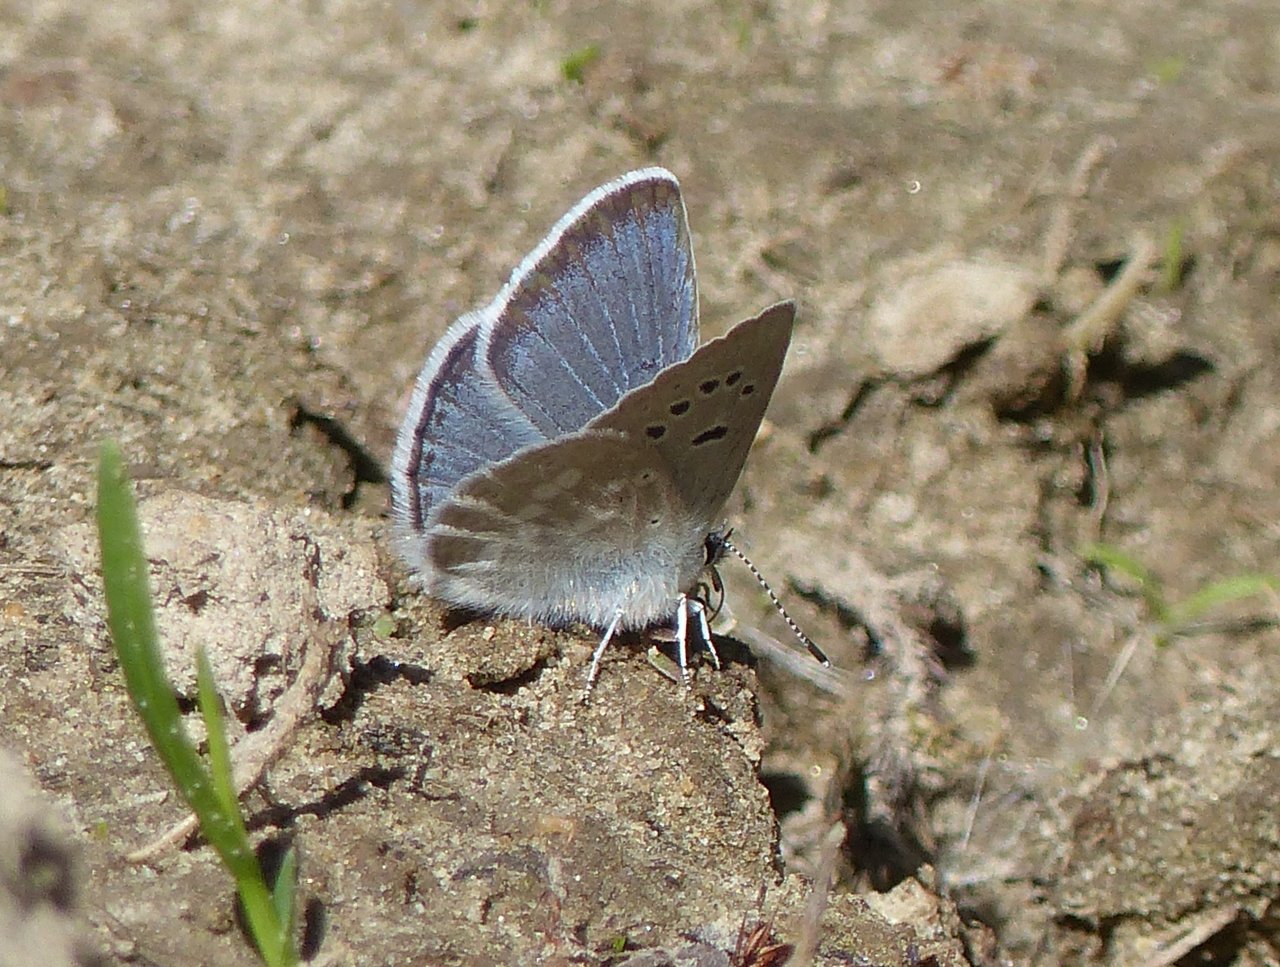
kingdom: Animalia
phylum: Arthropoda
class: Insecta
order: Lepidoptera
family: Lycaenidae
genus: Icaricia
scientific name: Icaricia icarioides
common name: Boisduval's Blue
